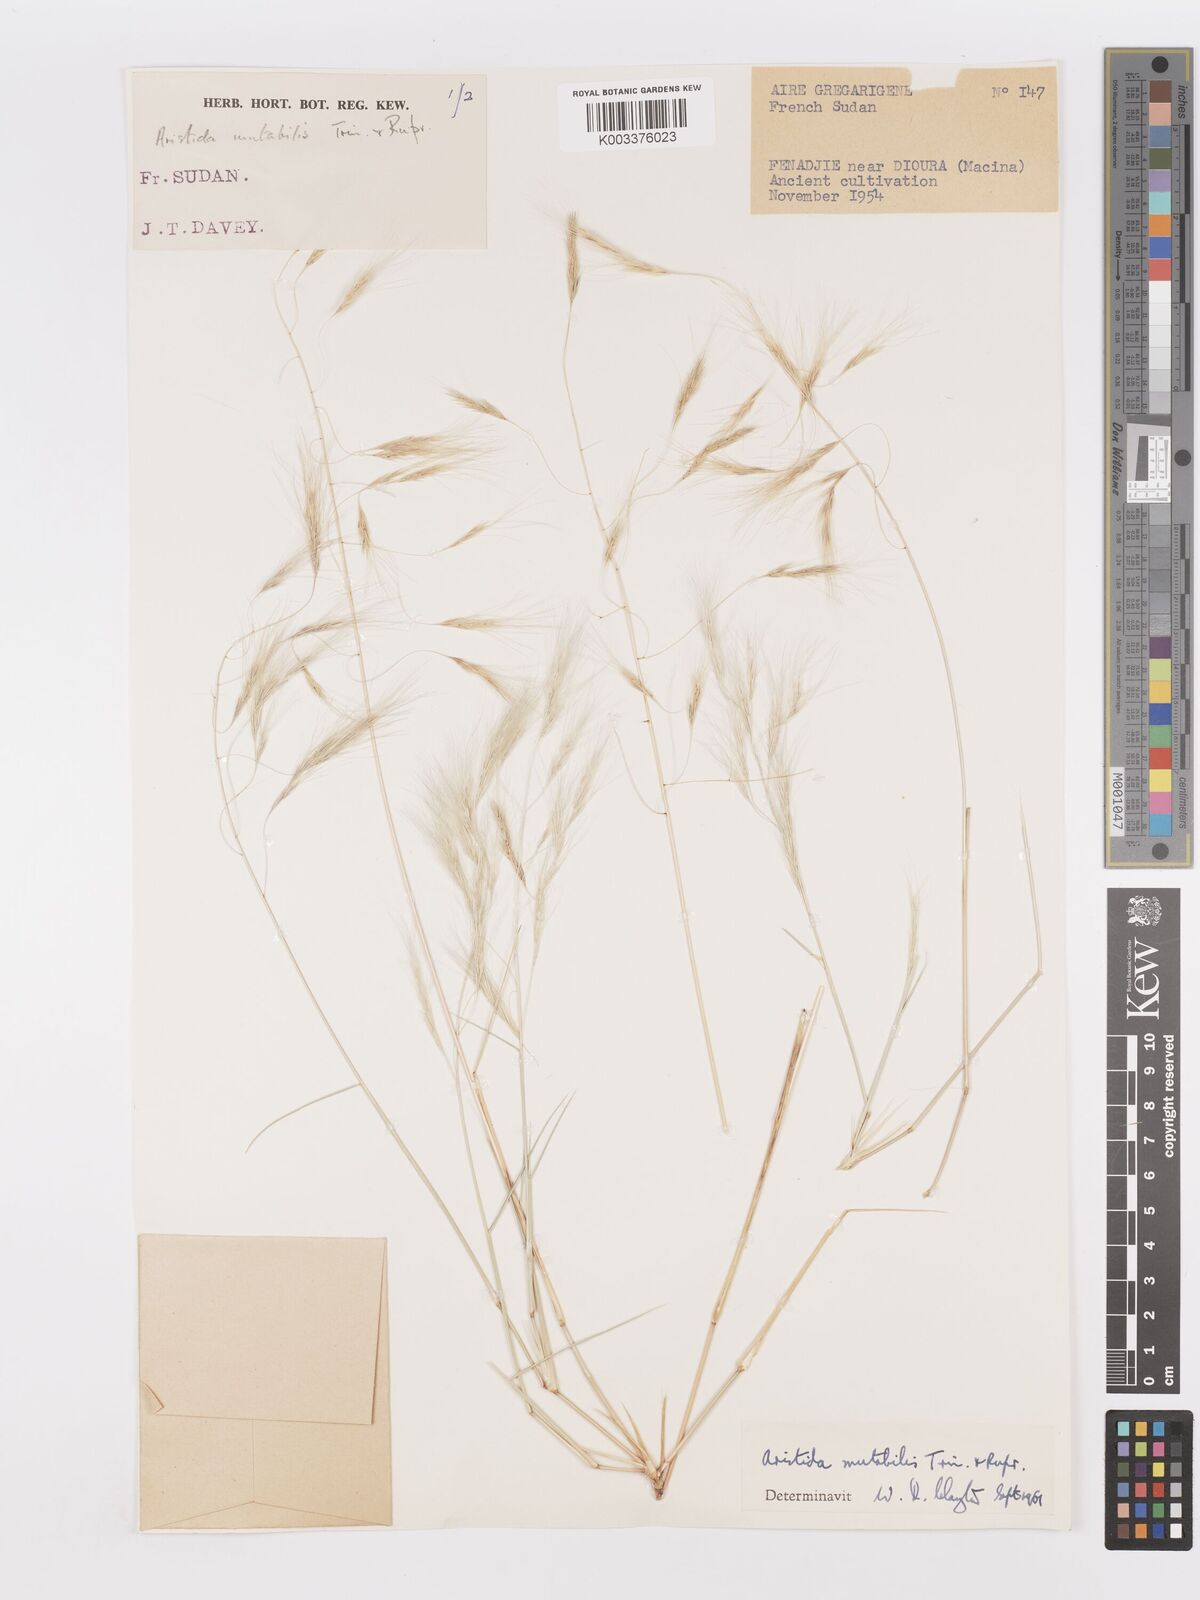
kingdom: Plantae
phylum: Tracheophyta
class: Liliopsida
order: Poales
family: Poaceae
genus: Aristida
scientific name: Aristida mutabilis
